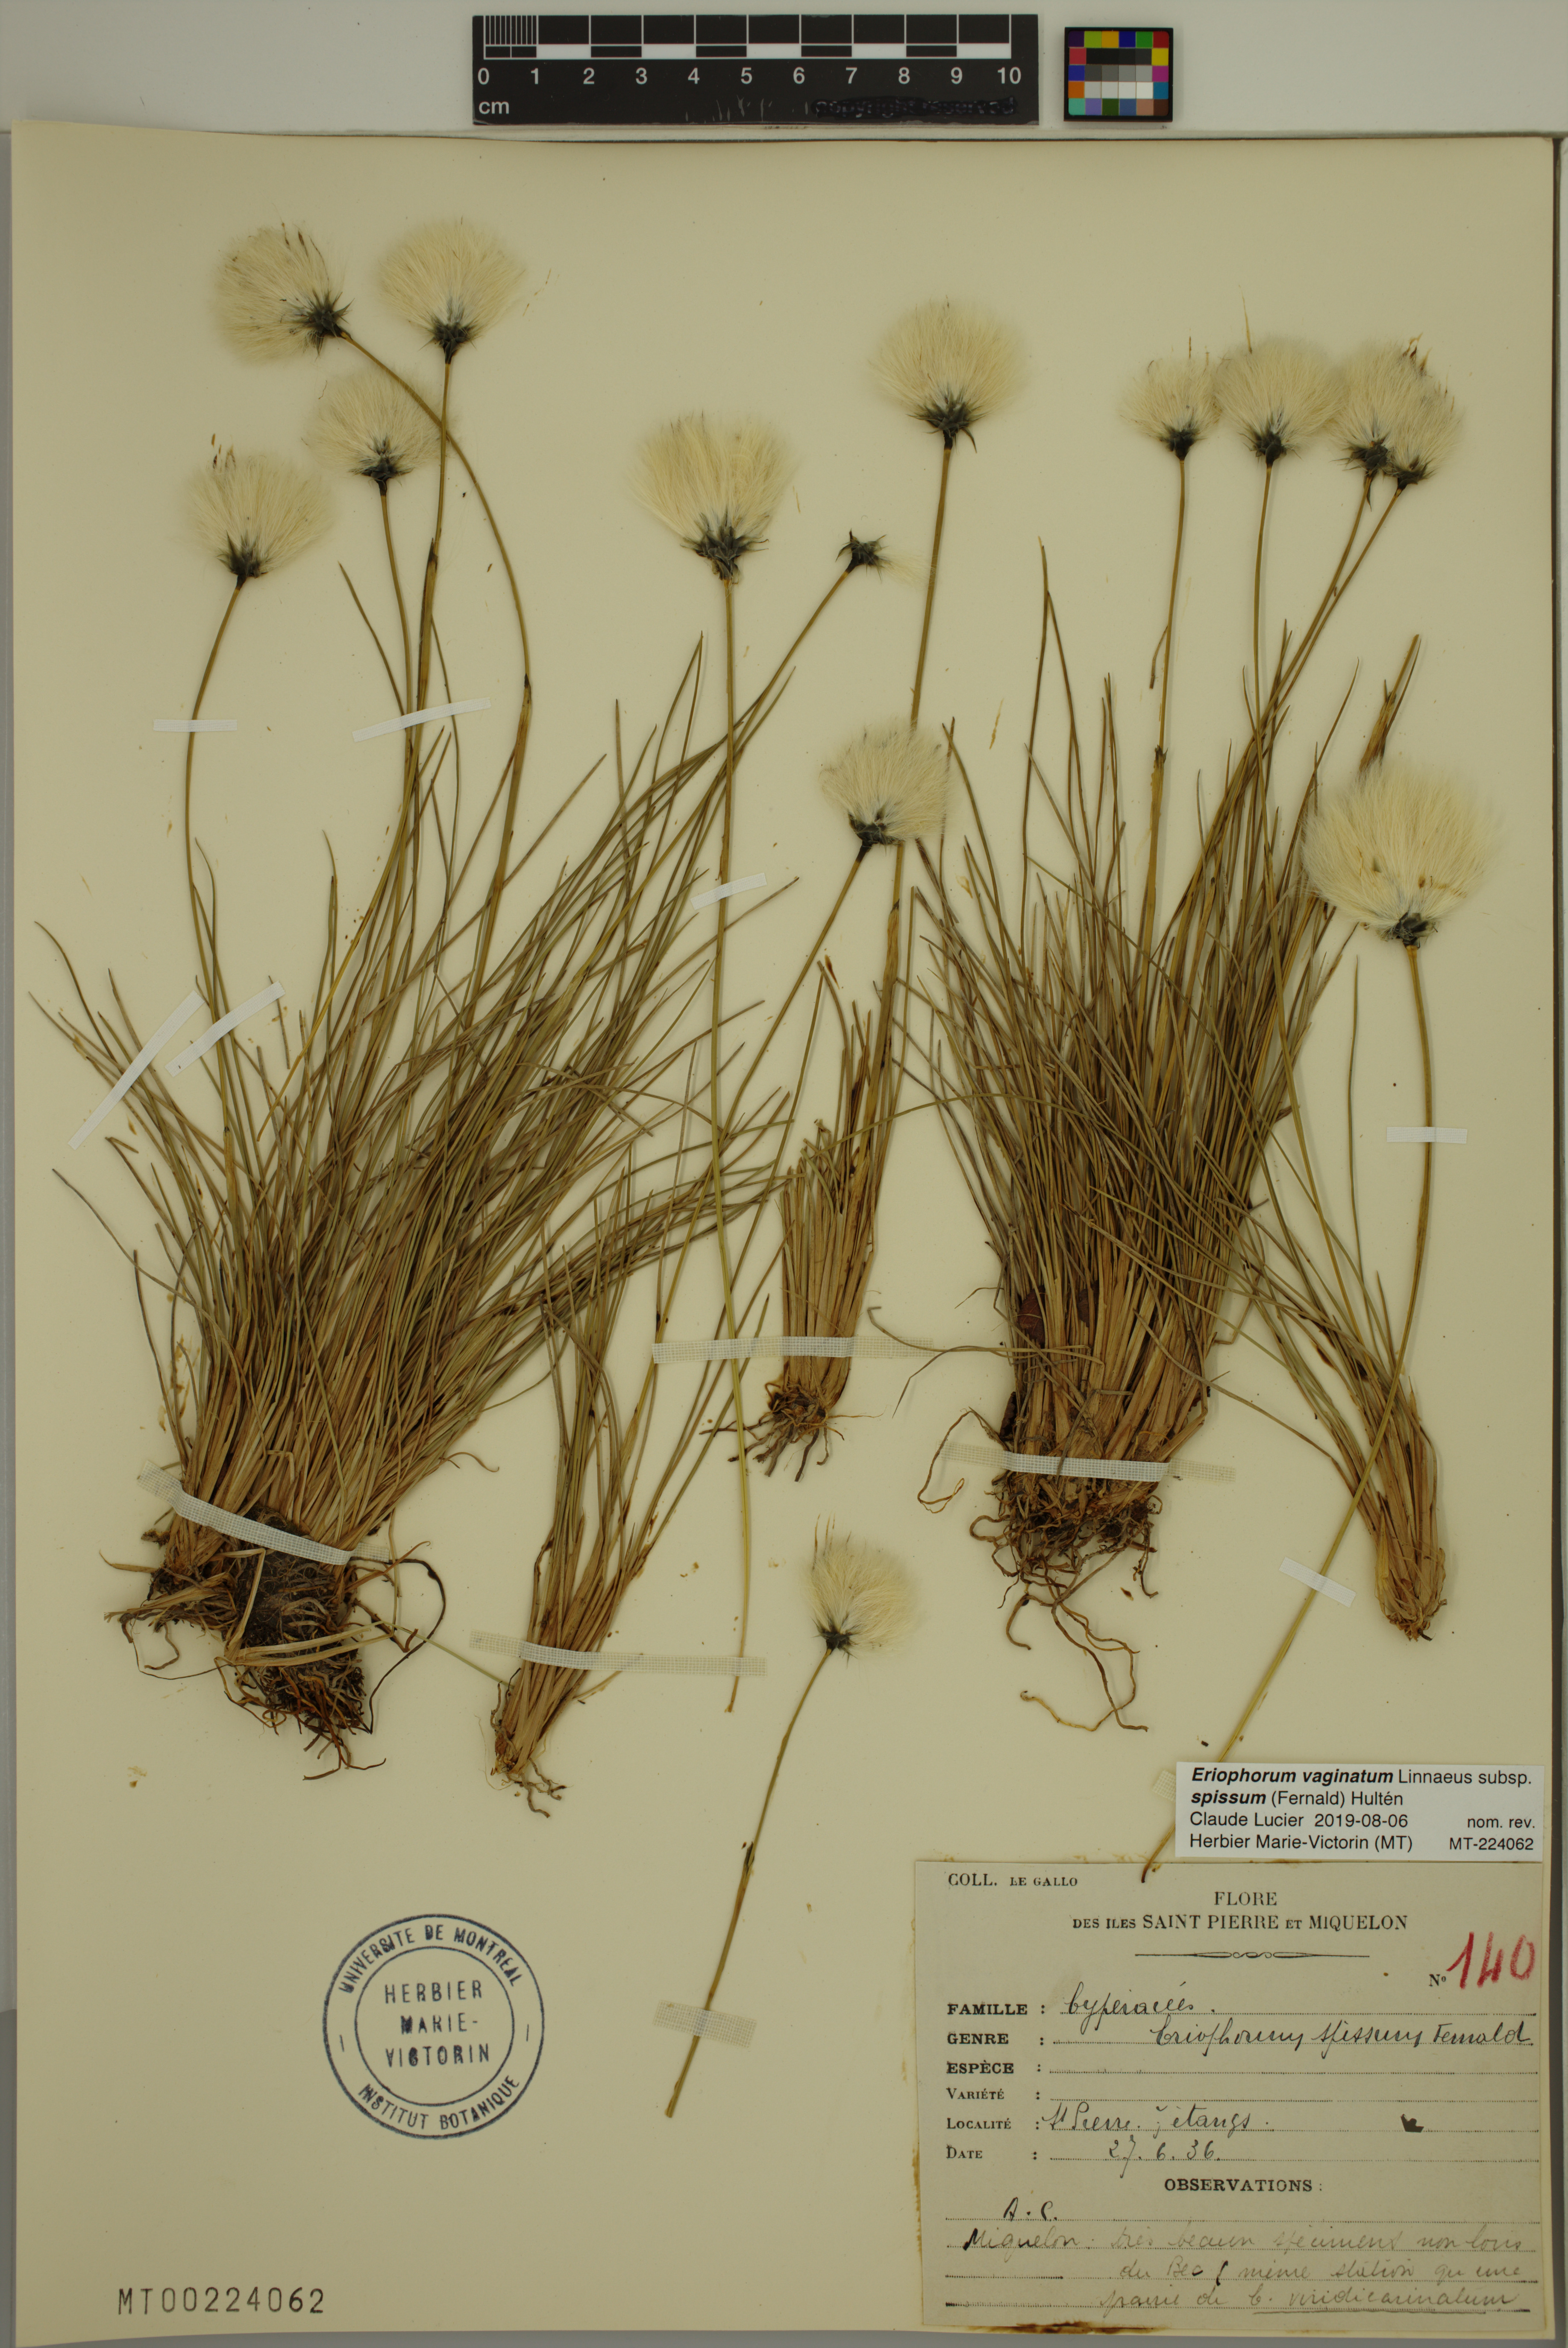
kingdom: Plantae
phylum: Tracheophyta
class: Liliopsida
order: Poales
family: Cyperaceae
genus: Eriophorum
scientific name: Eriophorum vaginatum
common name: Hare's-tail cottongrass
